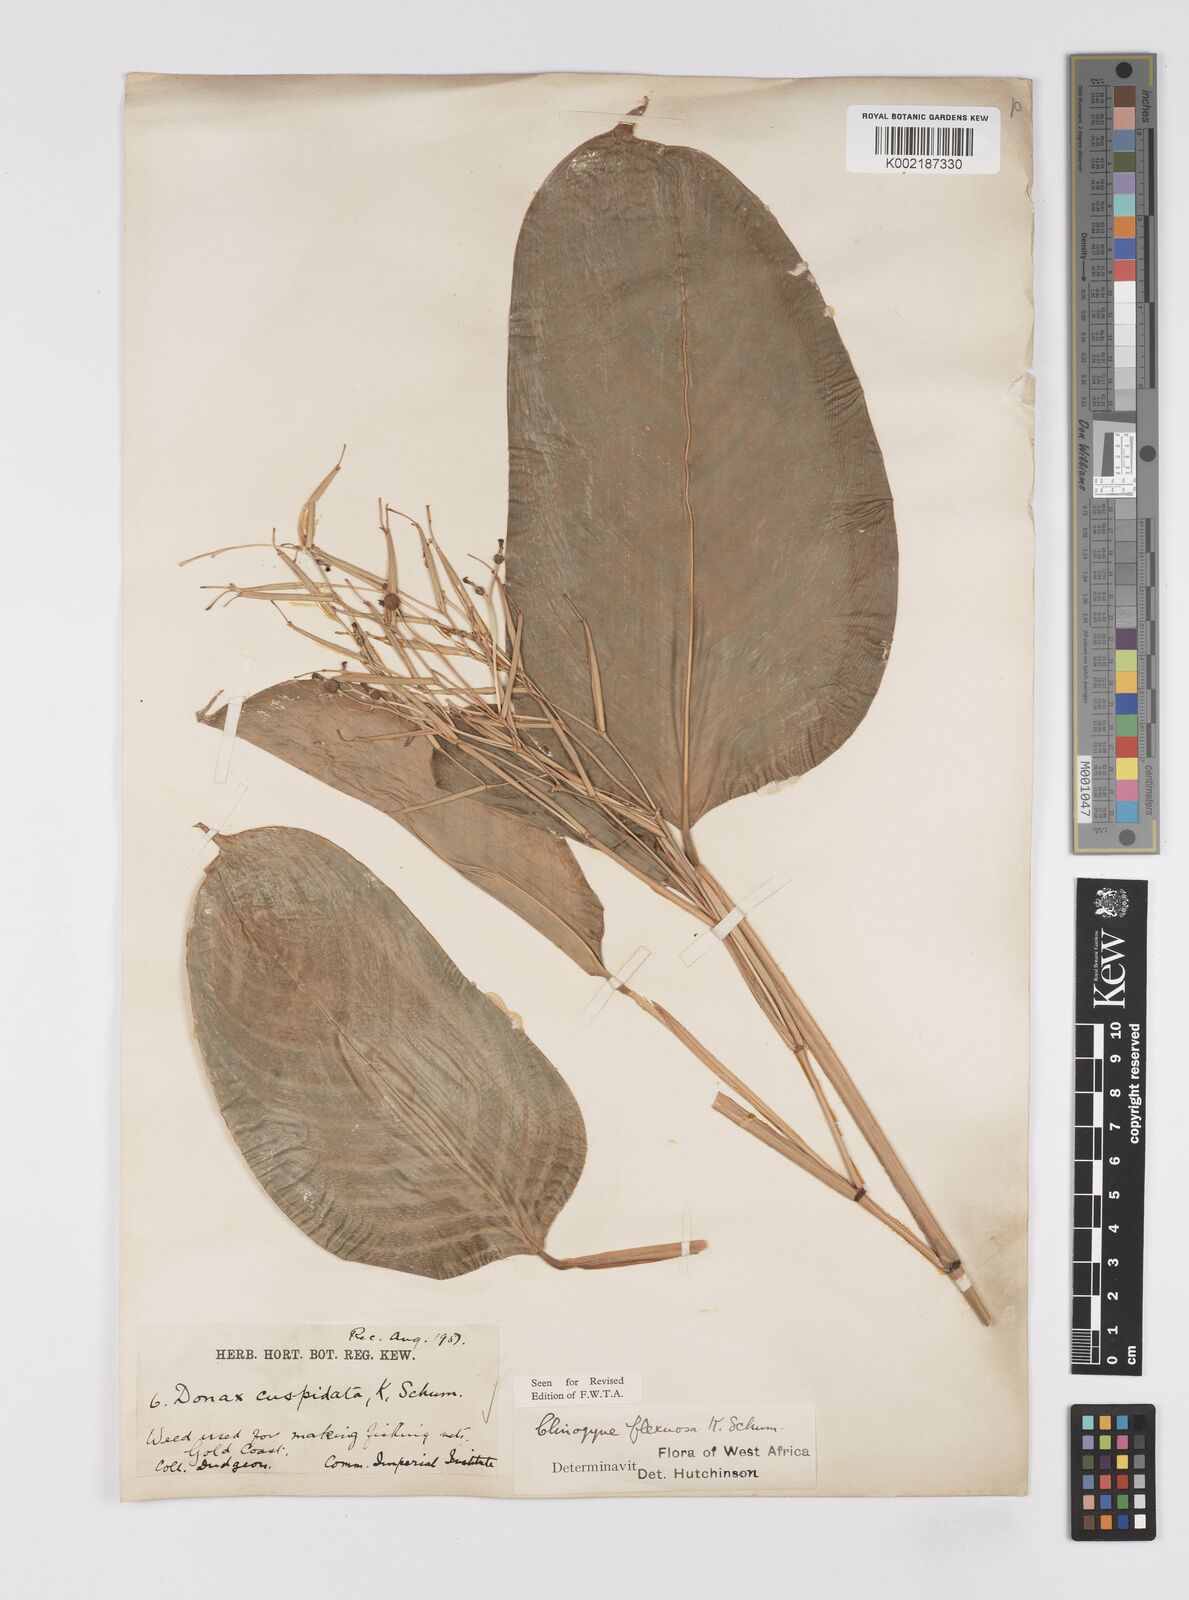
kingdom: Plantae
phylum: Tracheophyta
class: Liliopsida
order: Zingiberales
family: Marantaceae
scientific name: Marantaceae
